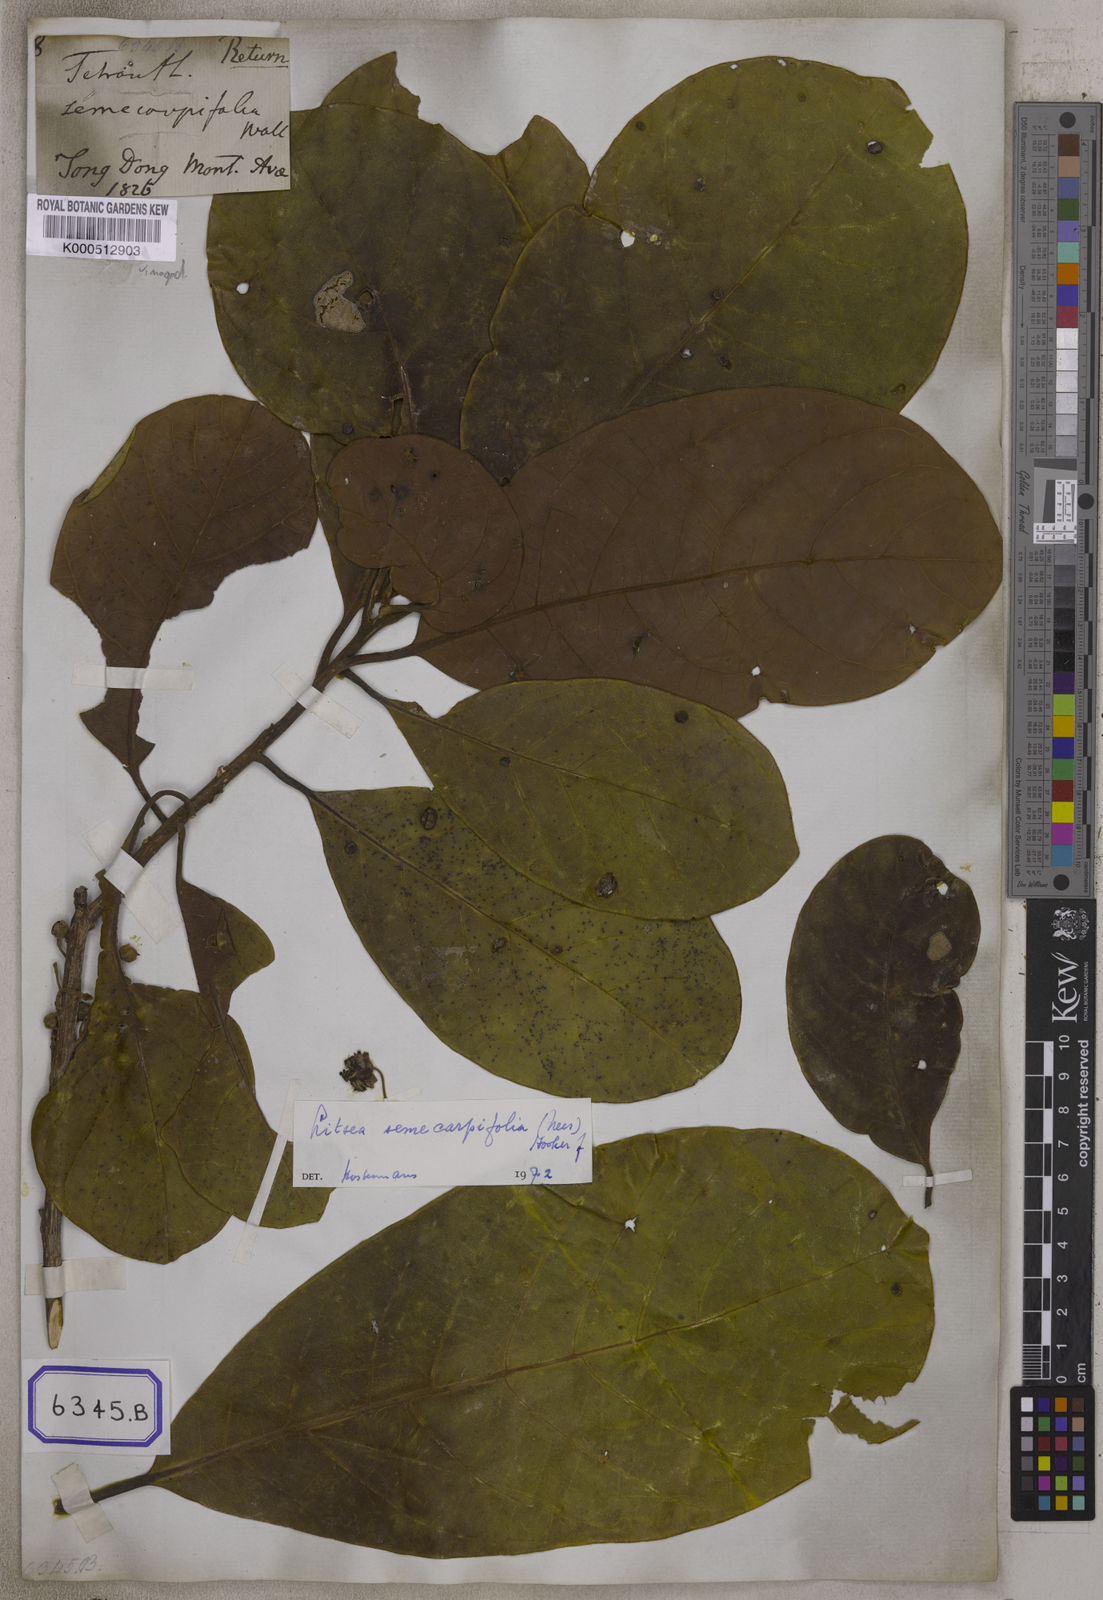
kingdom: Plantae
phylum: Tracheophyta
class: Magnoliopsida
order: Laurales
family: Lauraceae
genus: Litsea
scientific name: Litsea semecarpifolia
